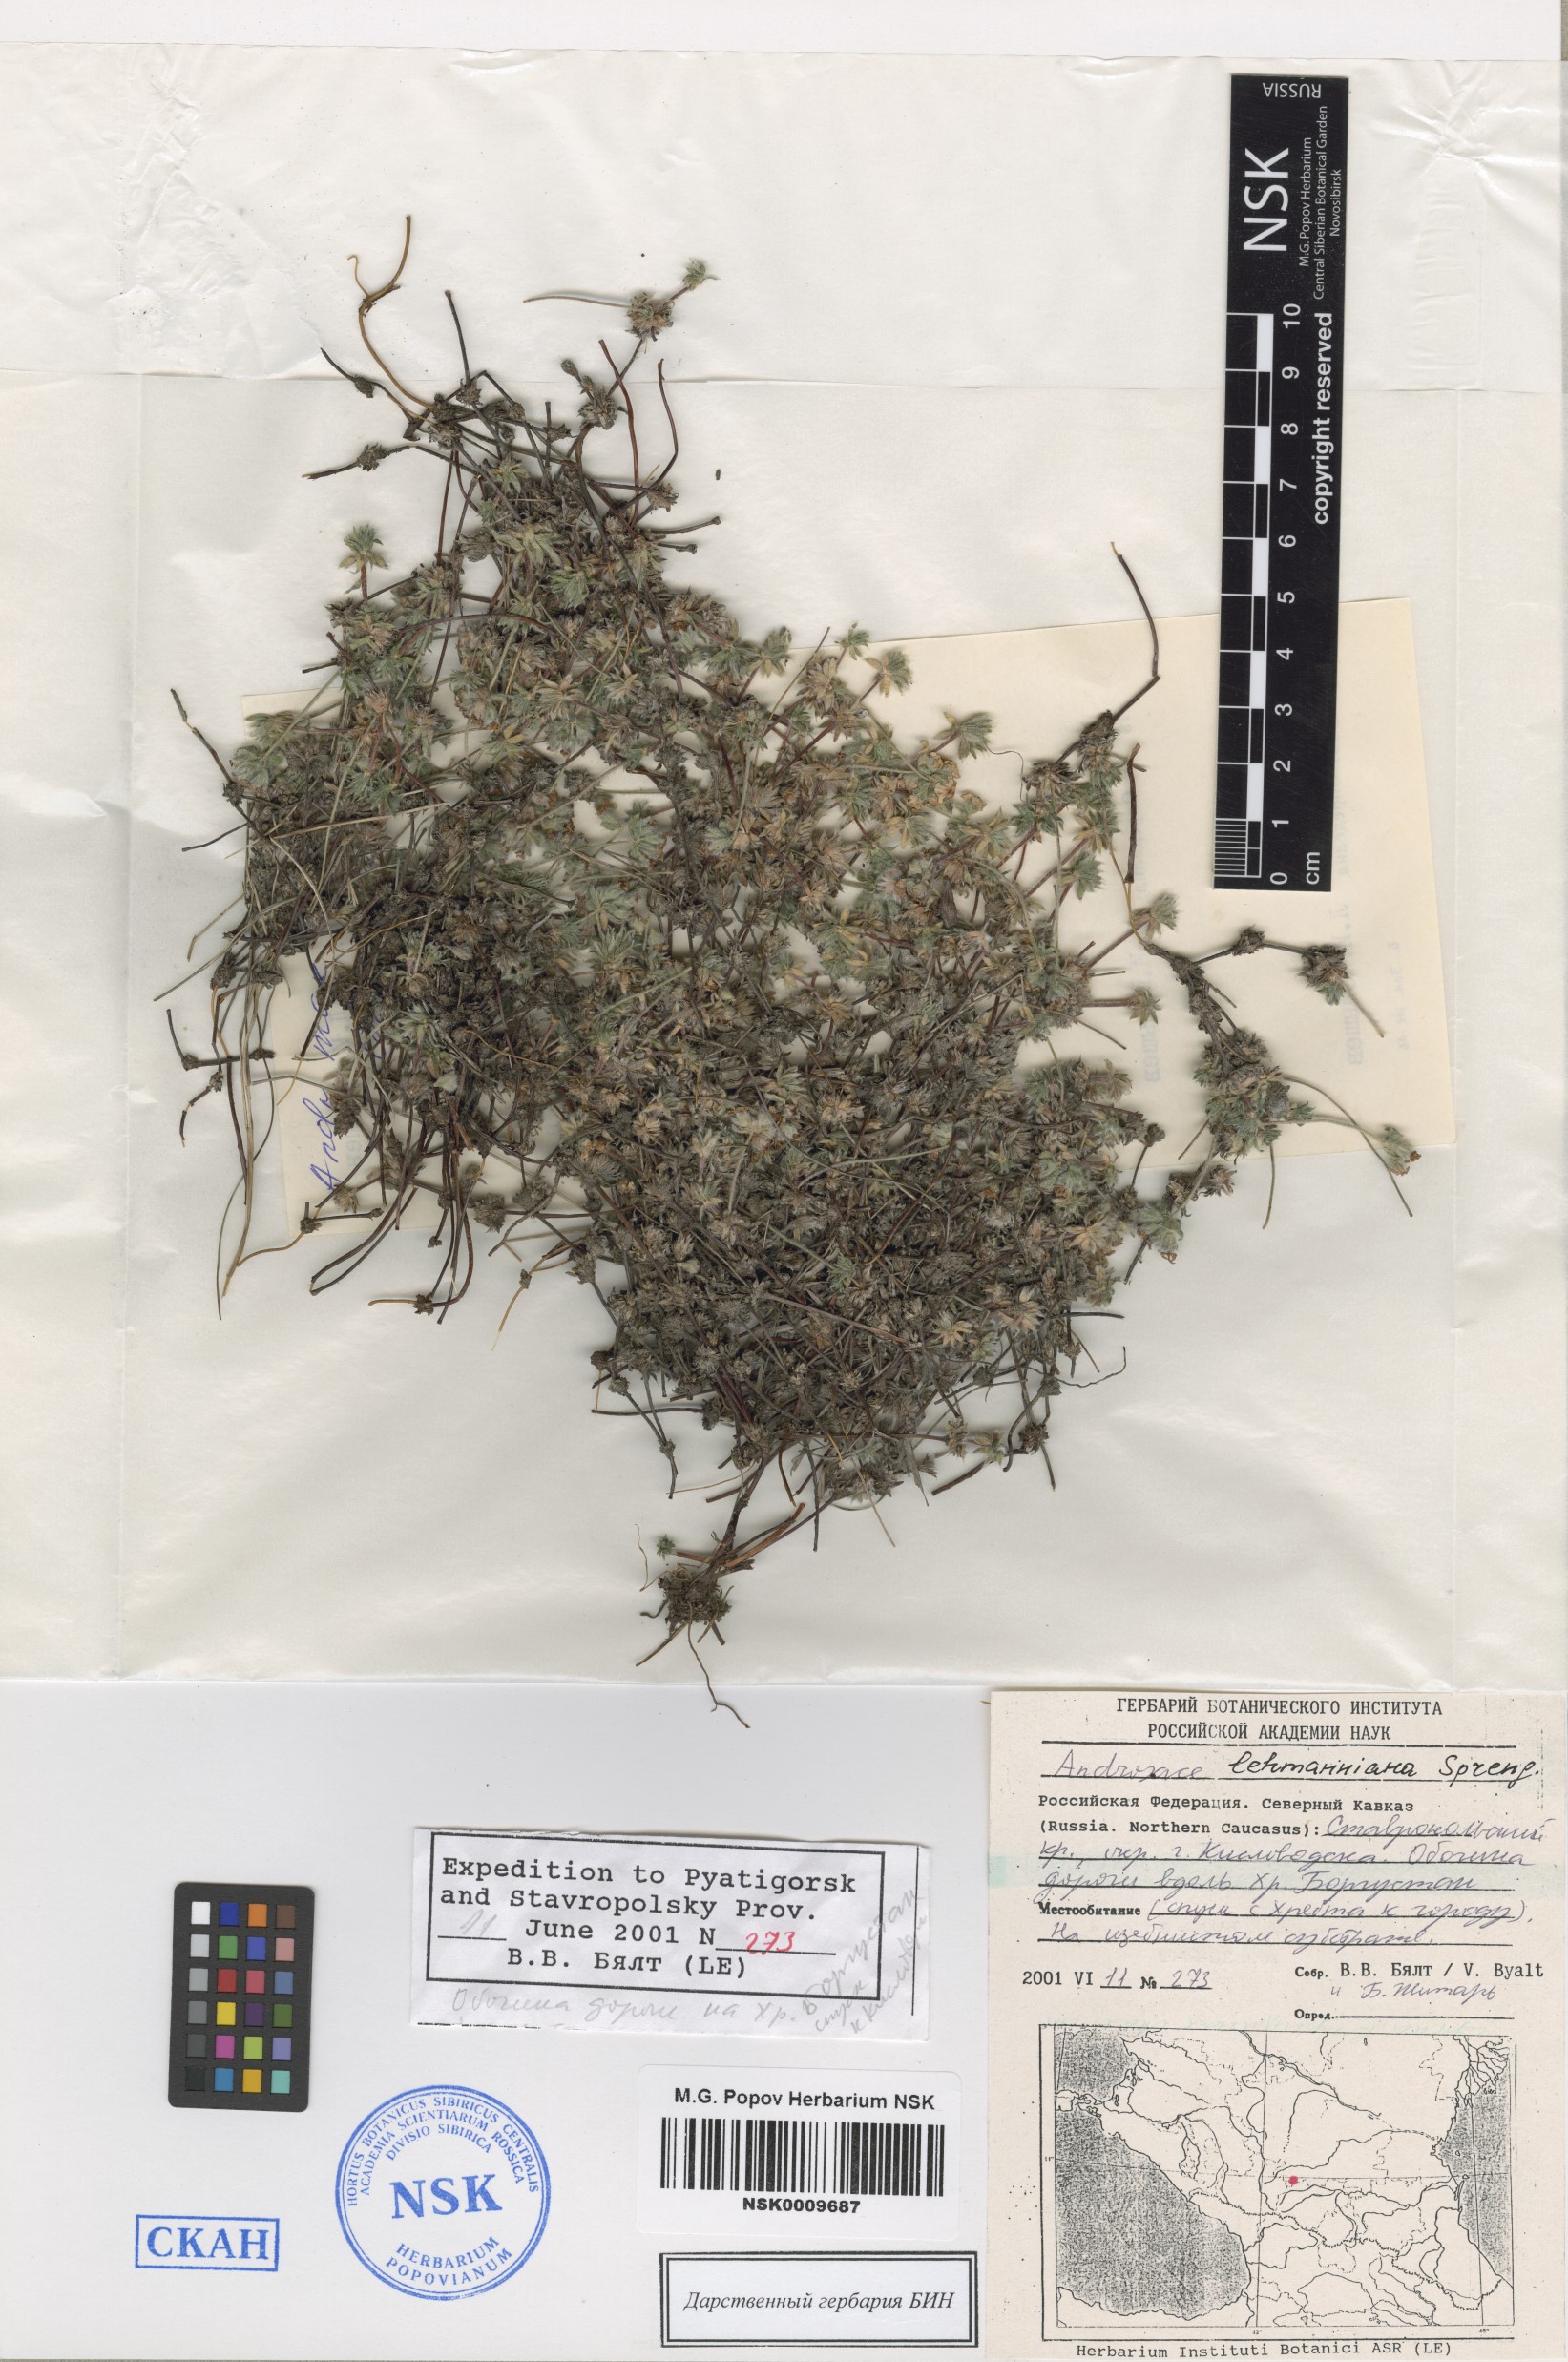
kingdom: Plantae
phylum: Tracheophyta
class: Magnoliopsida
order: Ericales
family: Primulaceae
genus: Androsace
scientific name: Androsace chamaejasme
